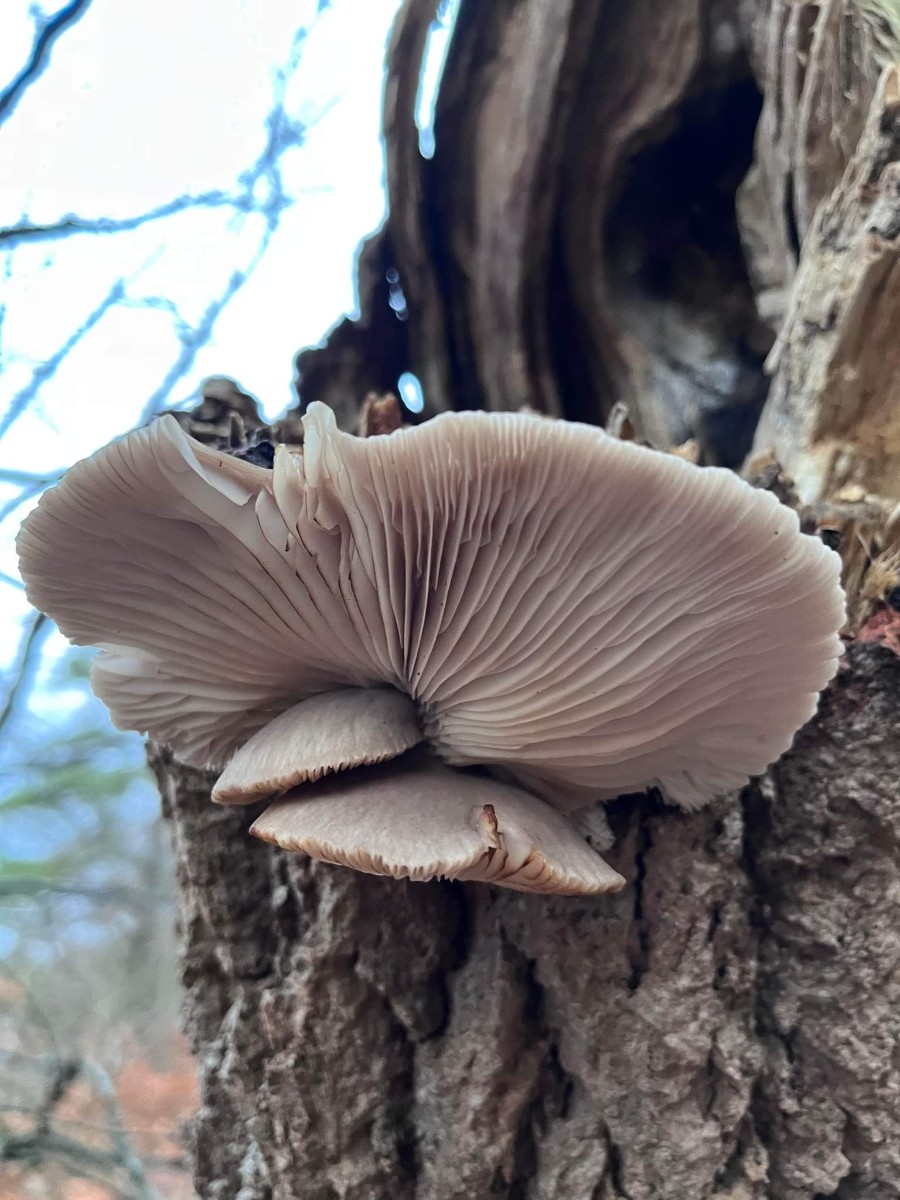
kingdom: Fungi
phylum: Basidiomycota
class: Agaricomycetes
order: Agaricales
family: Pleurotaceae
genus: Pleurotus
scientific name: Pleurotus ostreatus
